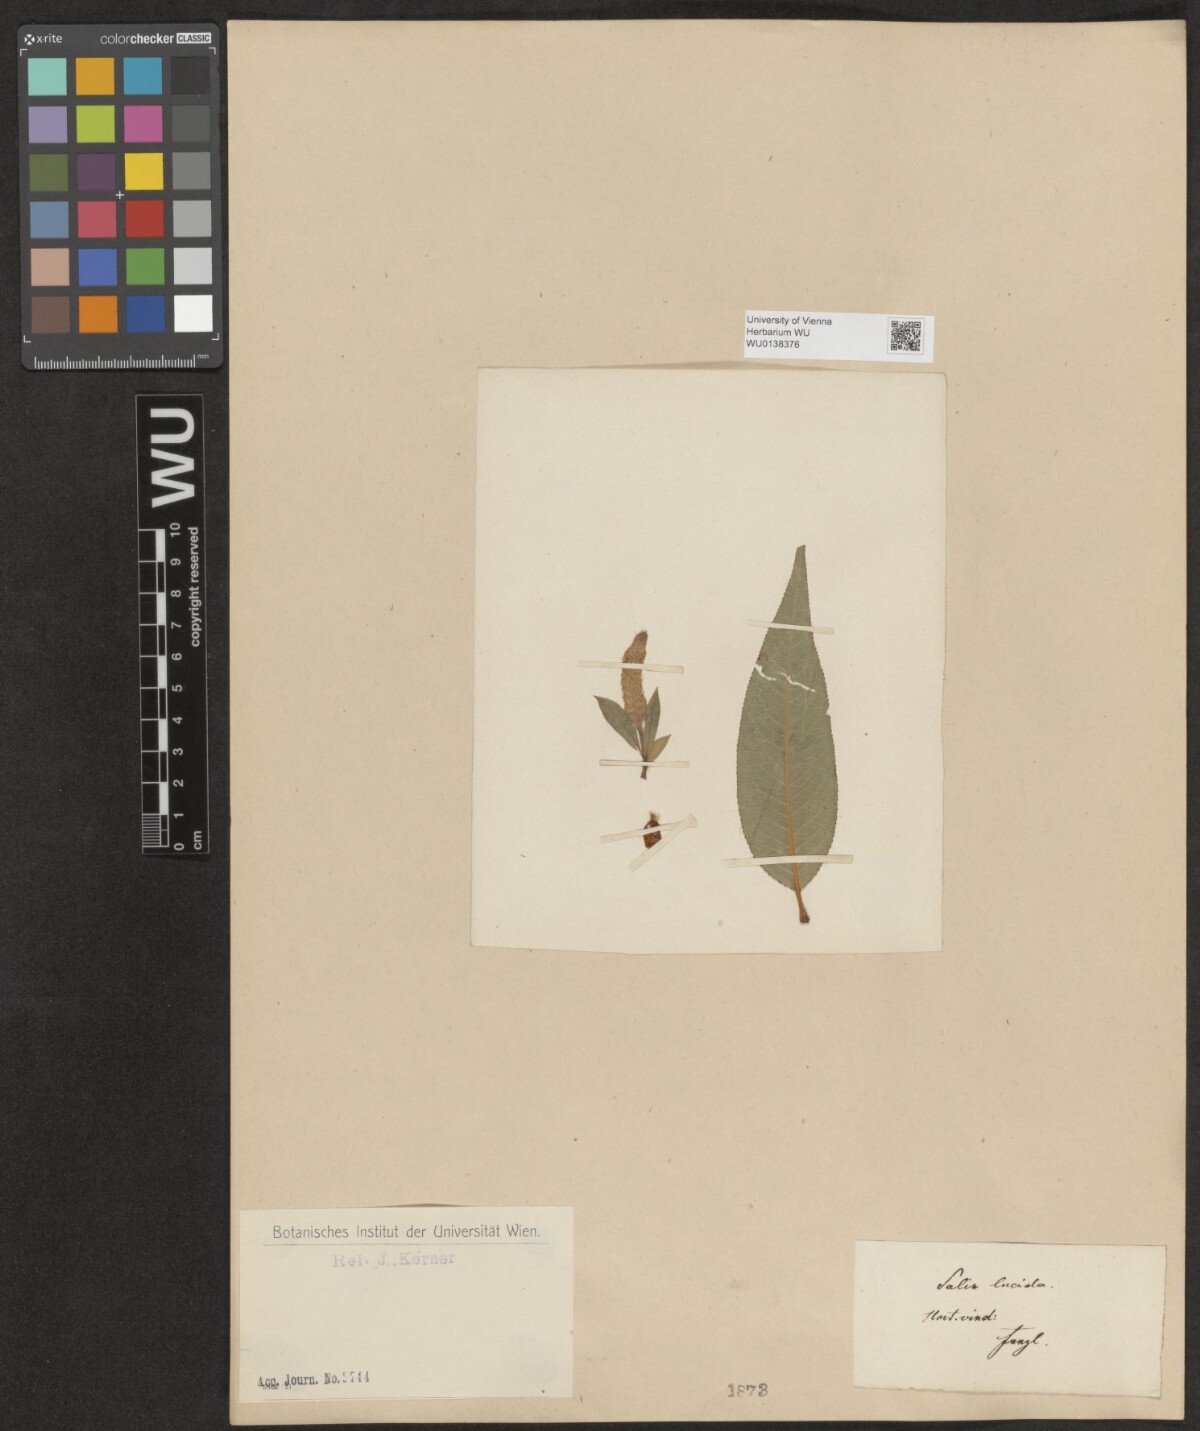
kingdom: Plantae
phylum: Tracheophyta
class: Magnoliopsida
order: Malpighiales
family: Salicaceae
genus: Salix
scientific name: Salix lucida
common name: Shining willow
